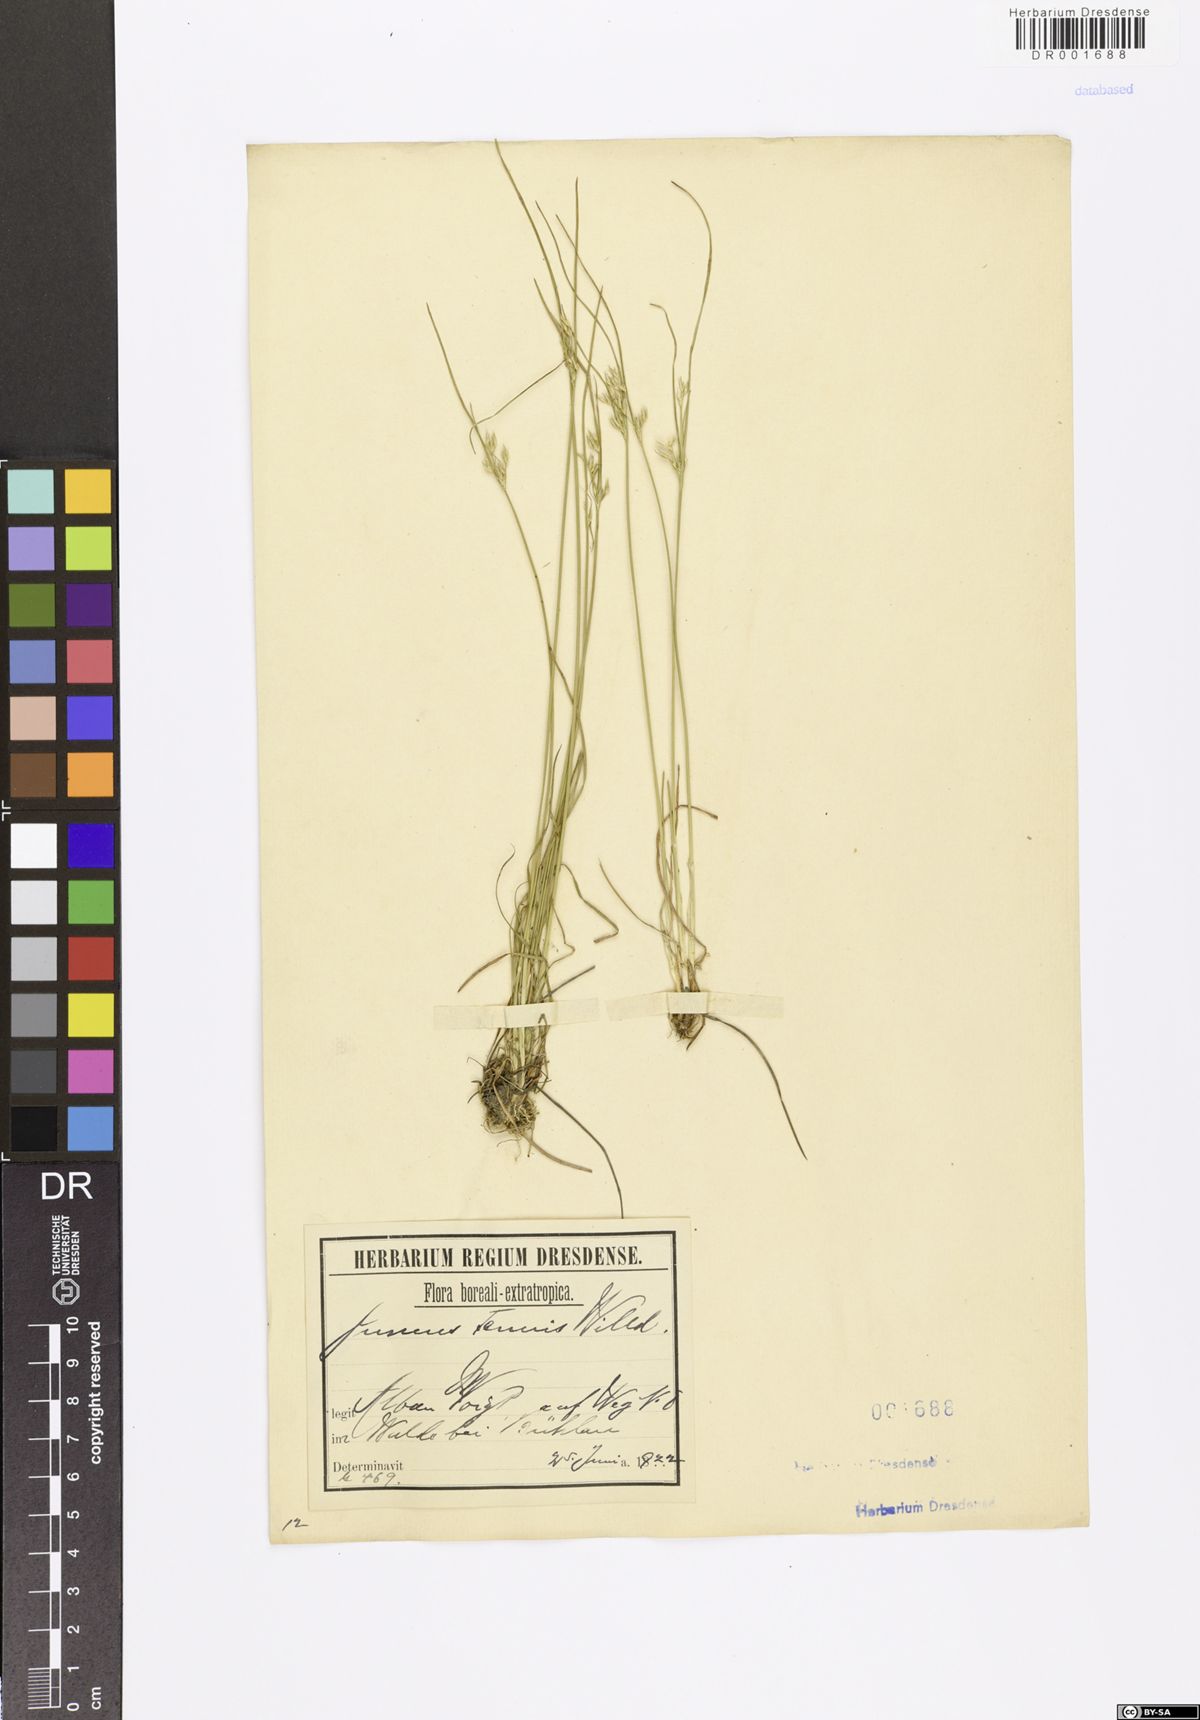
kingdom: Plantae
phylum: Tracheophyta
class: Liliopsida
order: Poales
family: Juncaceae
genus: Juncus
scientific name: Juncus tenuis
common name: Slender rush
